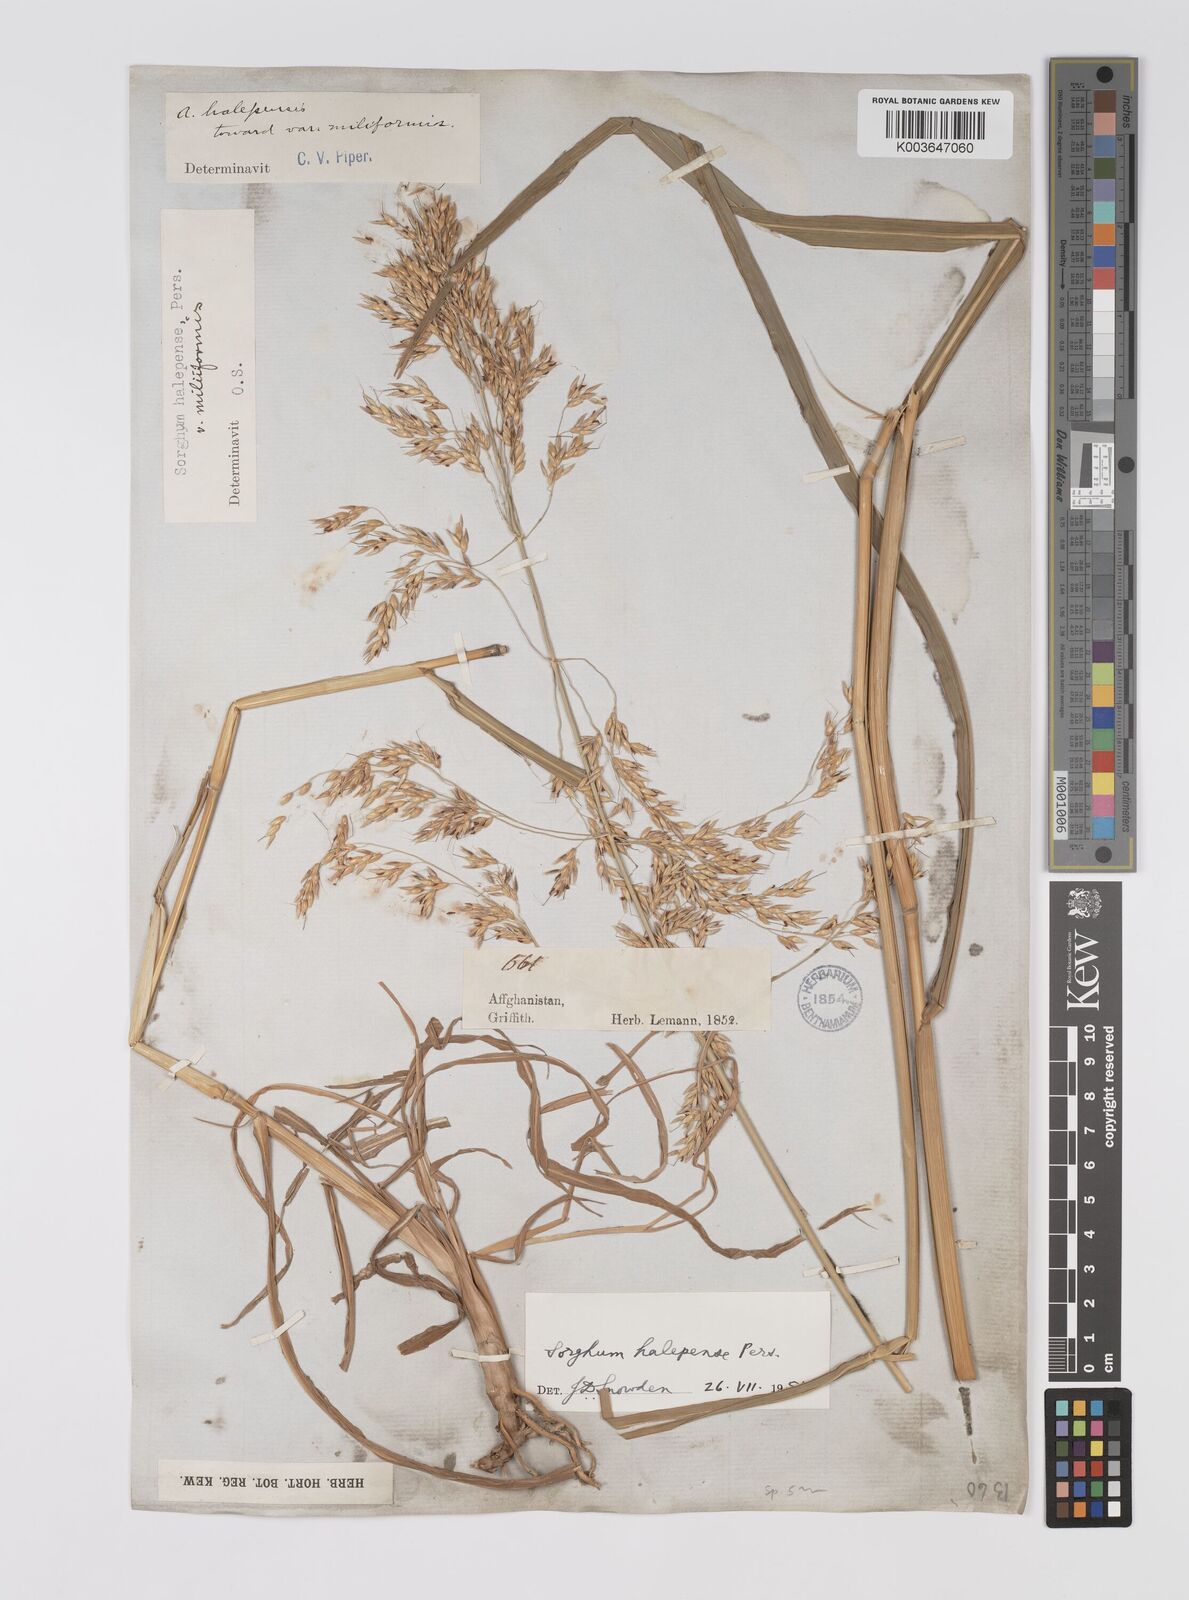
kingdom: Plantae
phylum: Tracheophyta
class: Liliopsida
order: Poales
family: Poaceae
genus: Sorghum
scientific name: Sorghum halepense
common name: Johnson-grass
